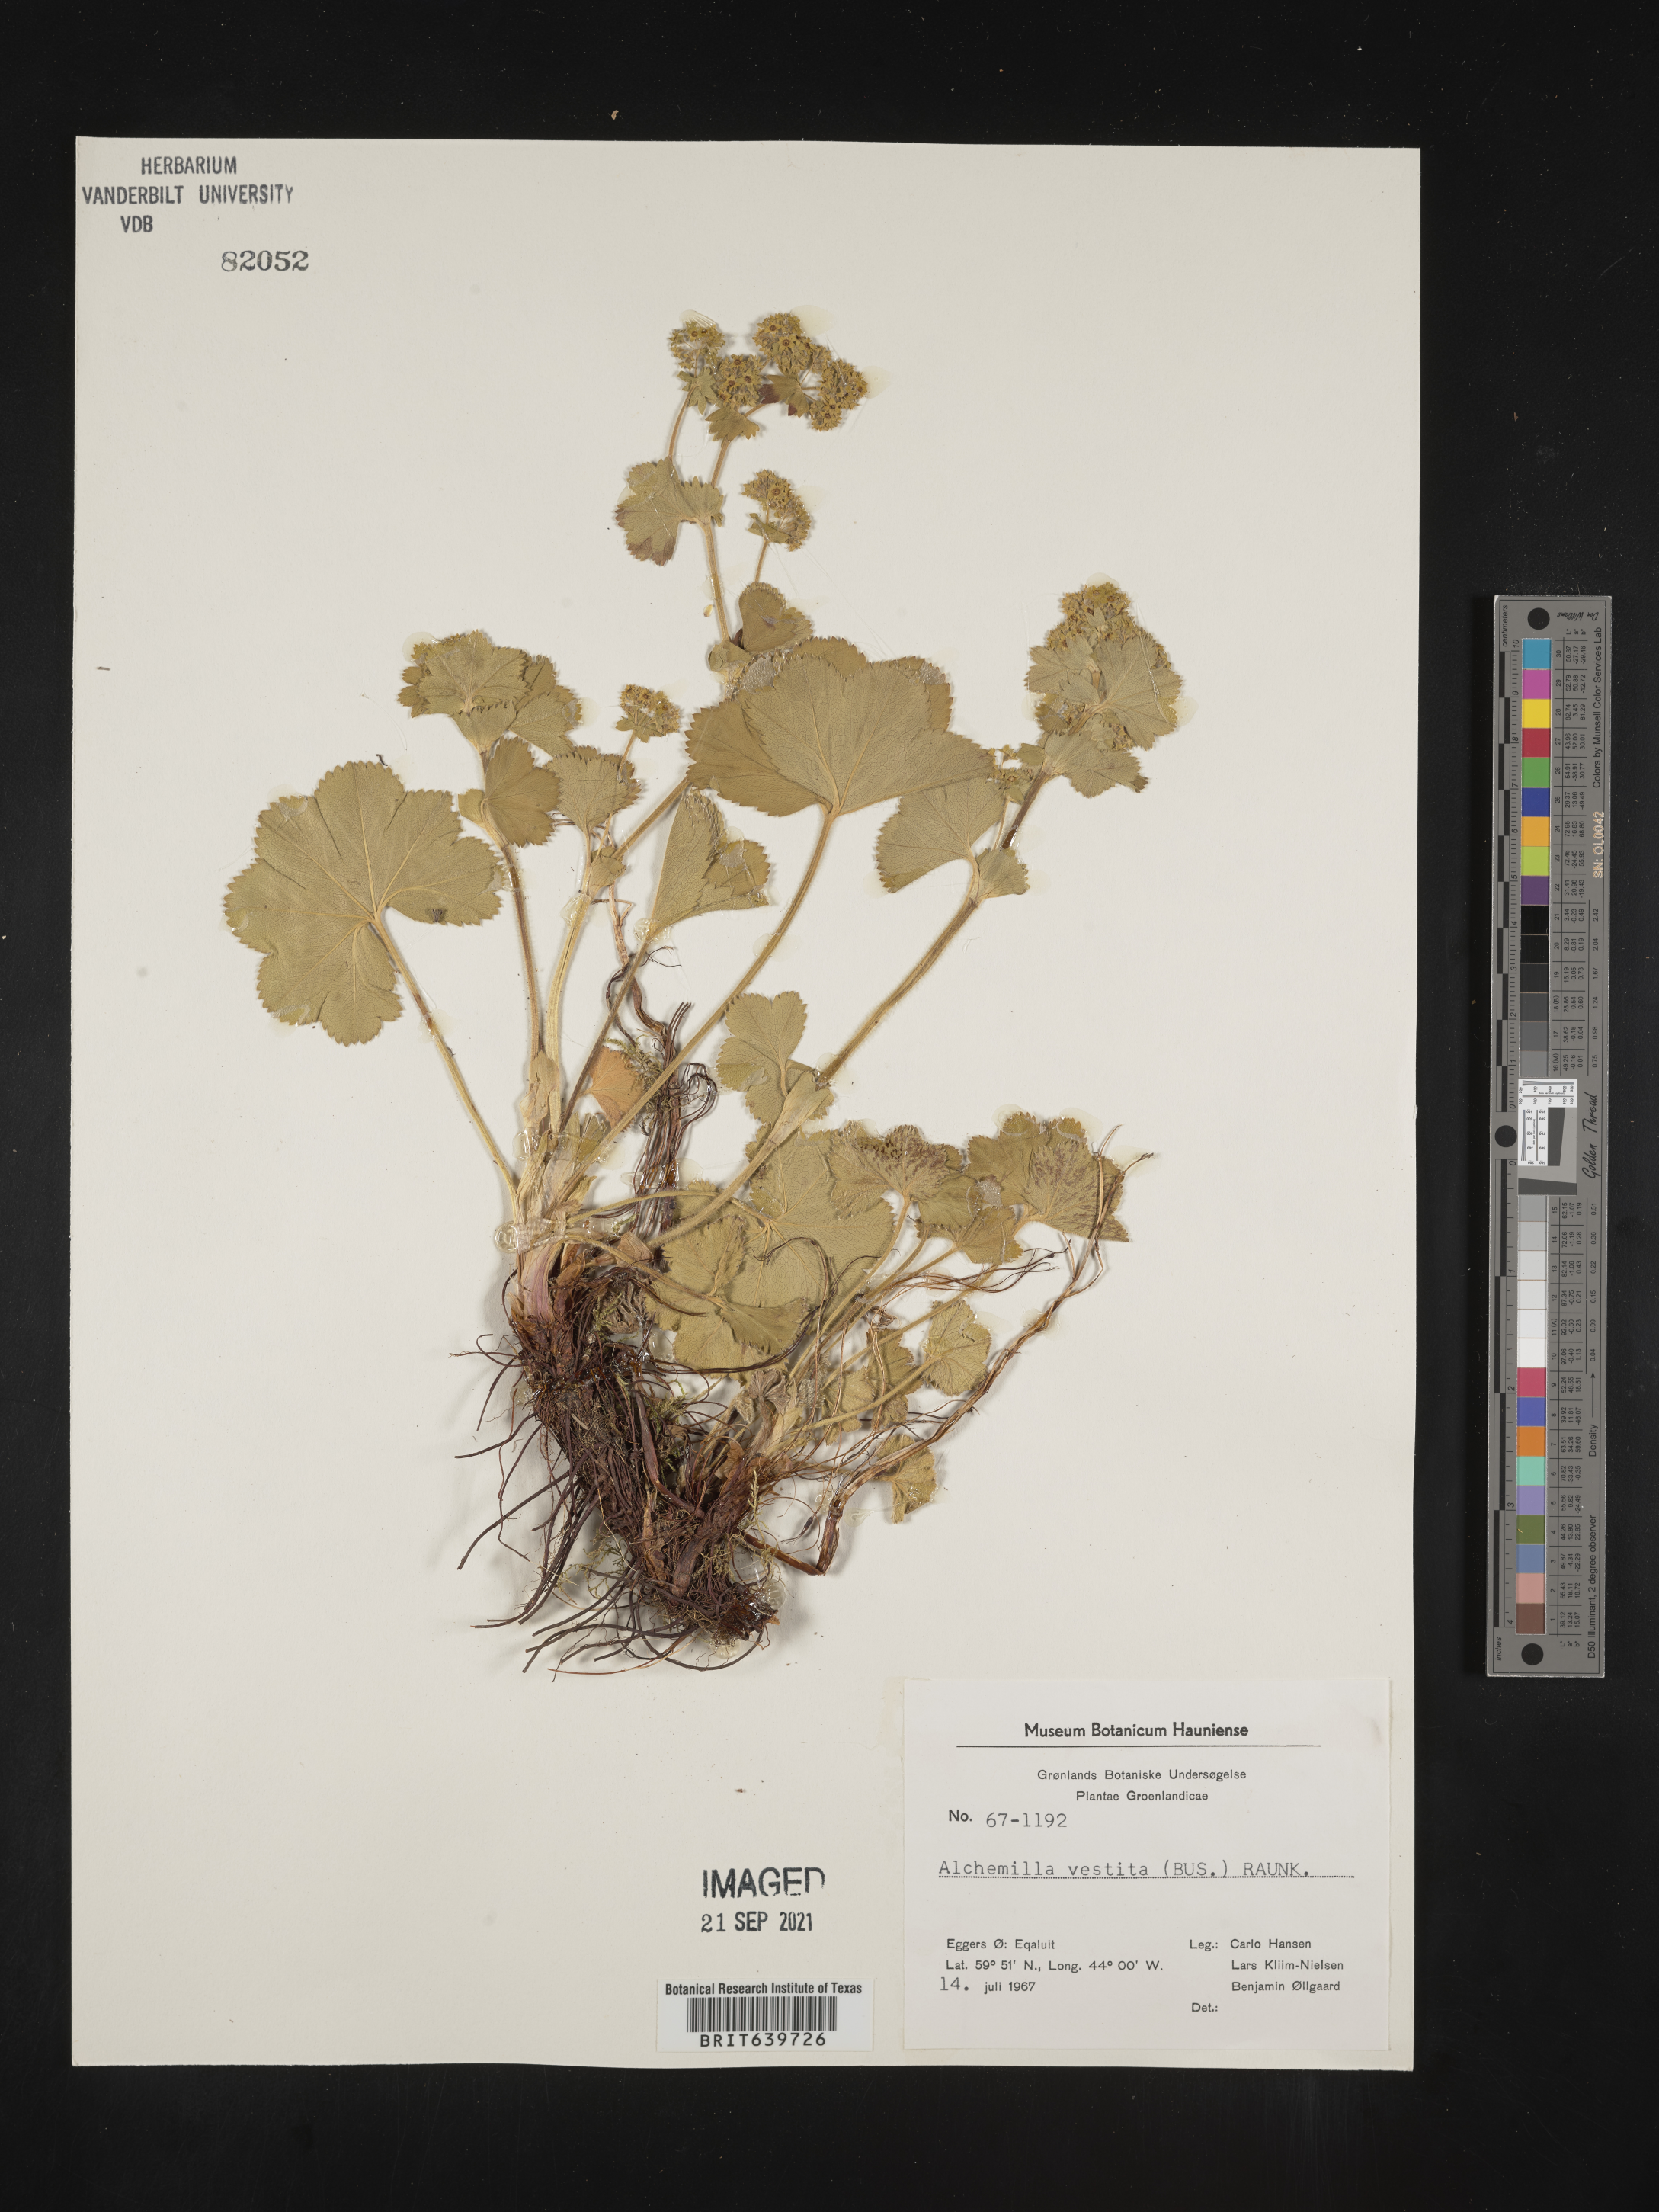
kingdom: Plantae
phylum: Tracheophyta
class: Magnoliopsida
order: Rosales
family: Rosaceae
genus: Alchemilla
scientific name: Alchemilla
